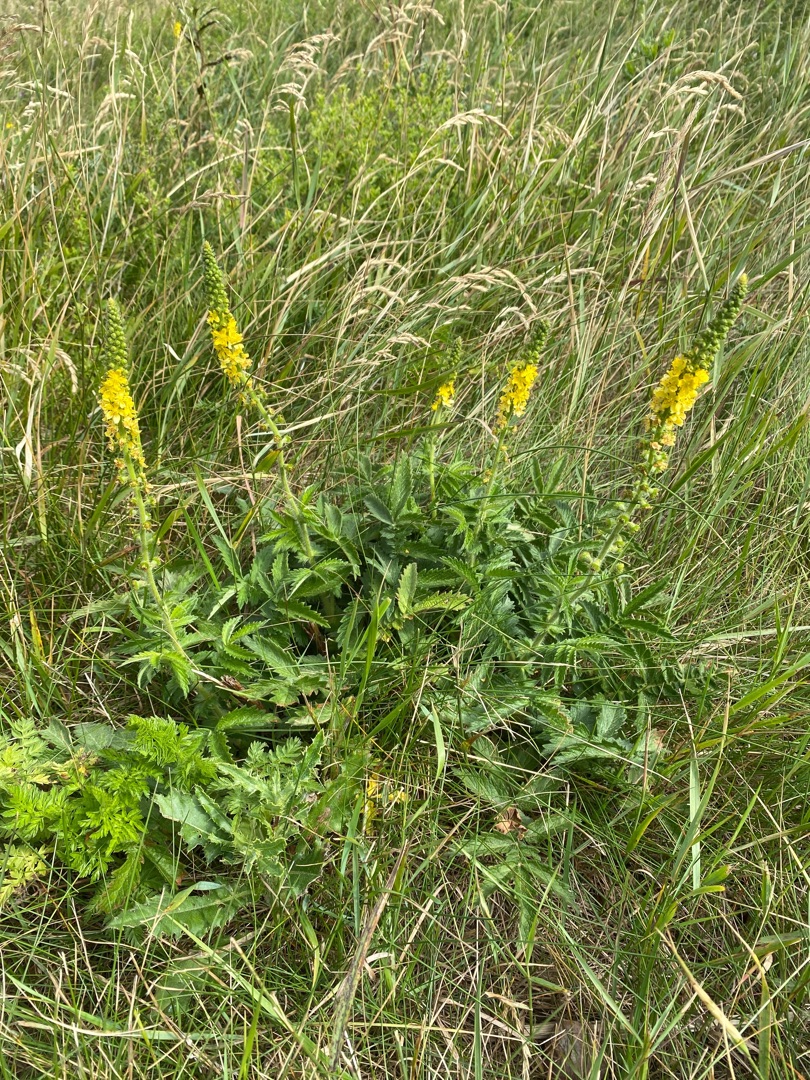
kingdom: Plantae
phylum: Tracheophyta
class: Magnoliopsida
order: Rosales
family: Rosaceae
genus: Agrimonia
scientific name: Agrimonia
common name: Agermåneslægten
